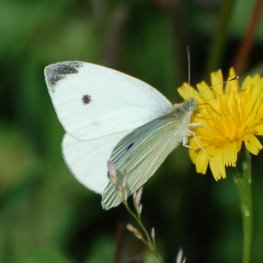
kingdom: Animalia
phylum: Arthropoda
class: Insecta
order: Lepidoptera
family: Pieridae
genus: Pieris
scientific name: Pieris rapae
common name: Cabbage White
